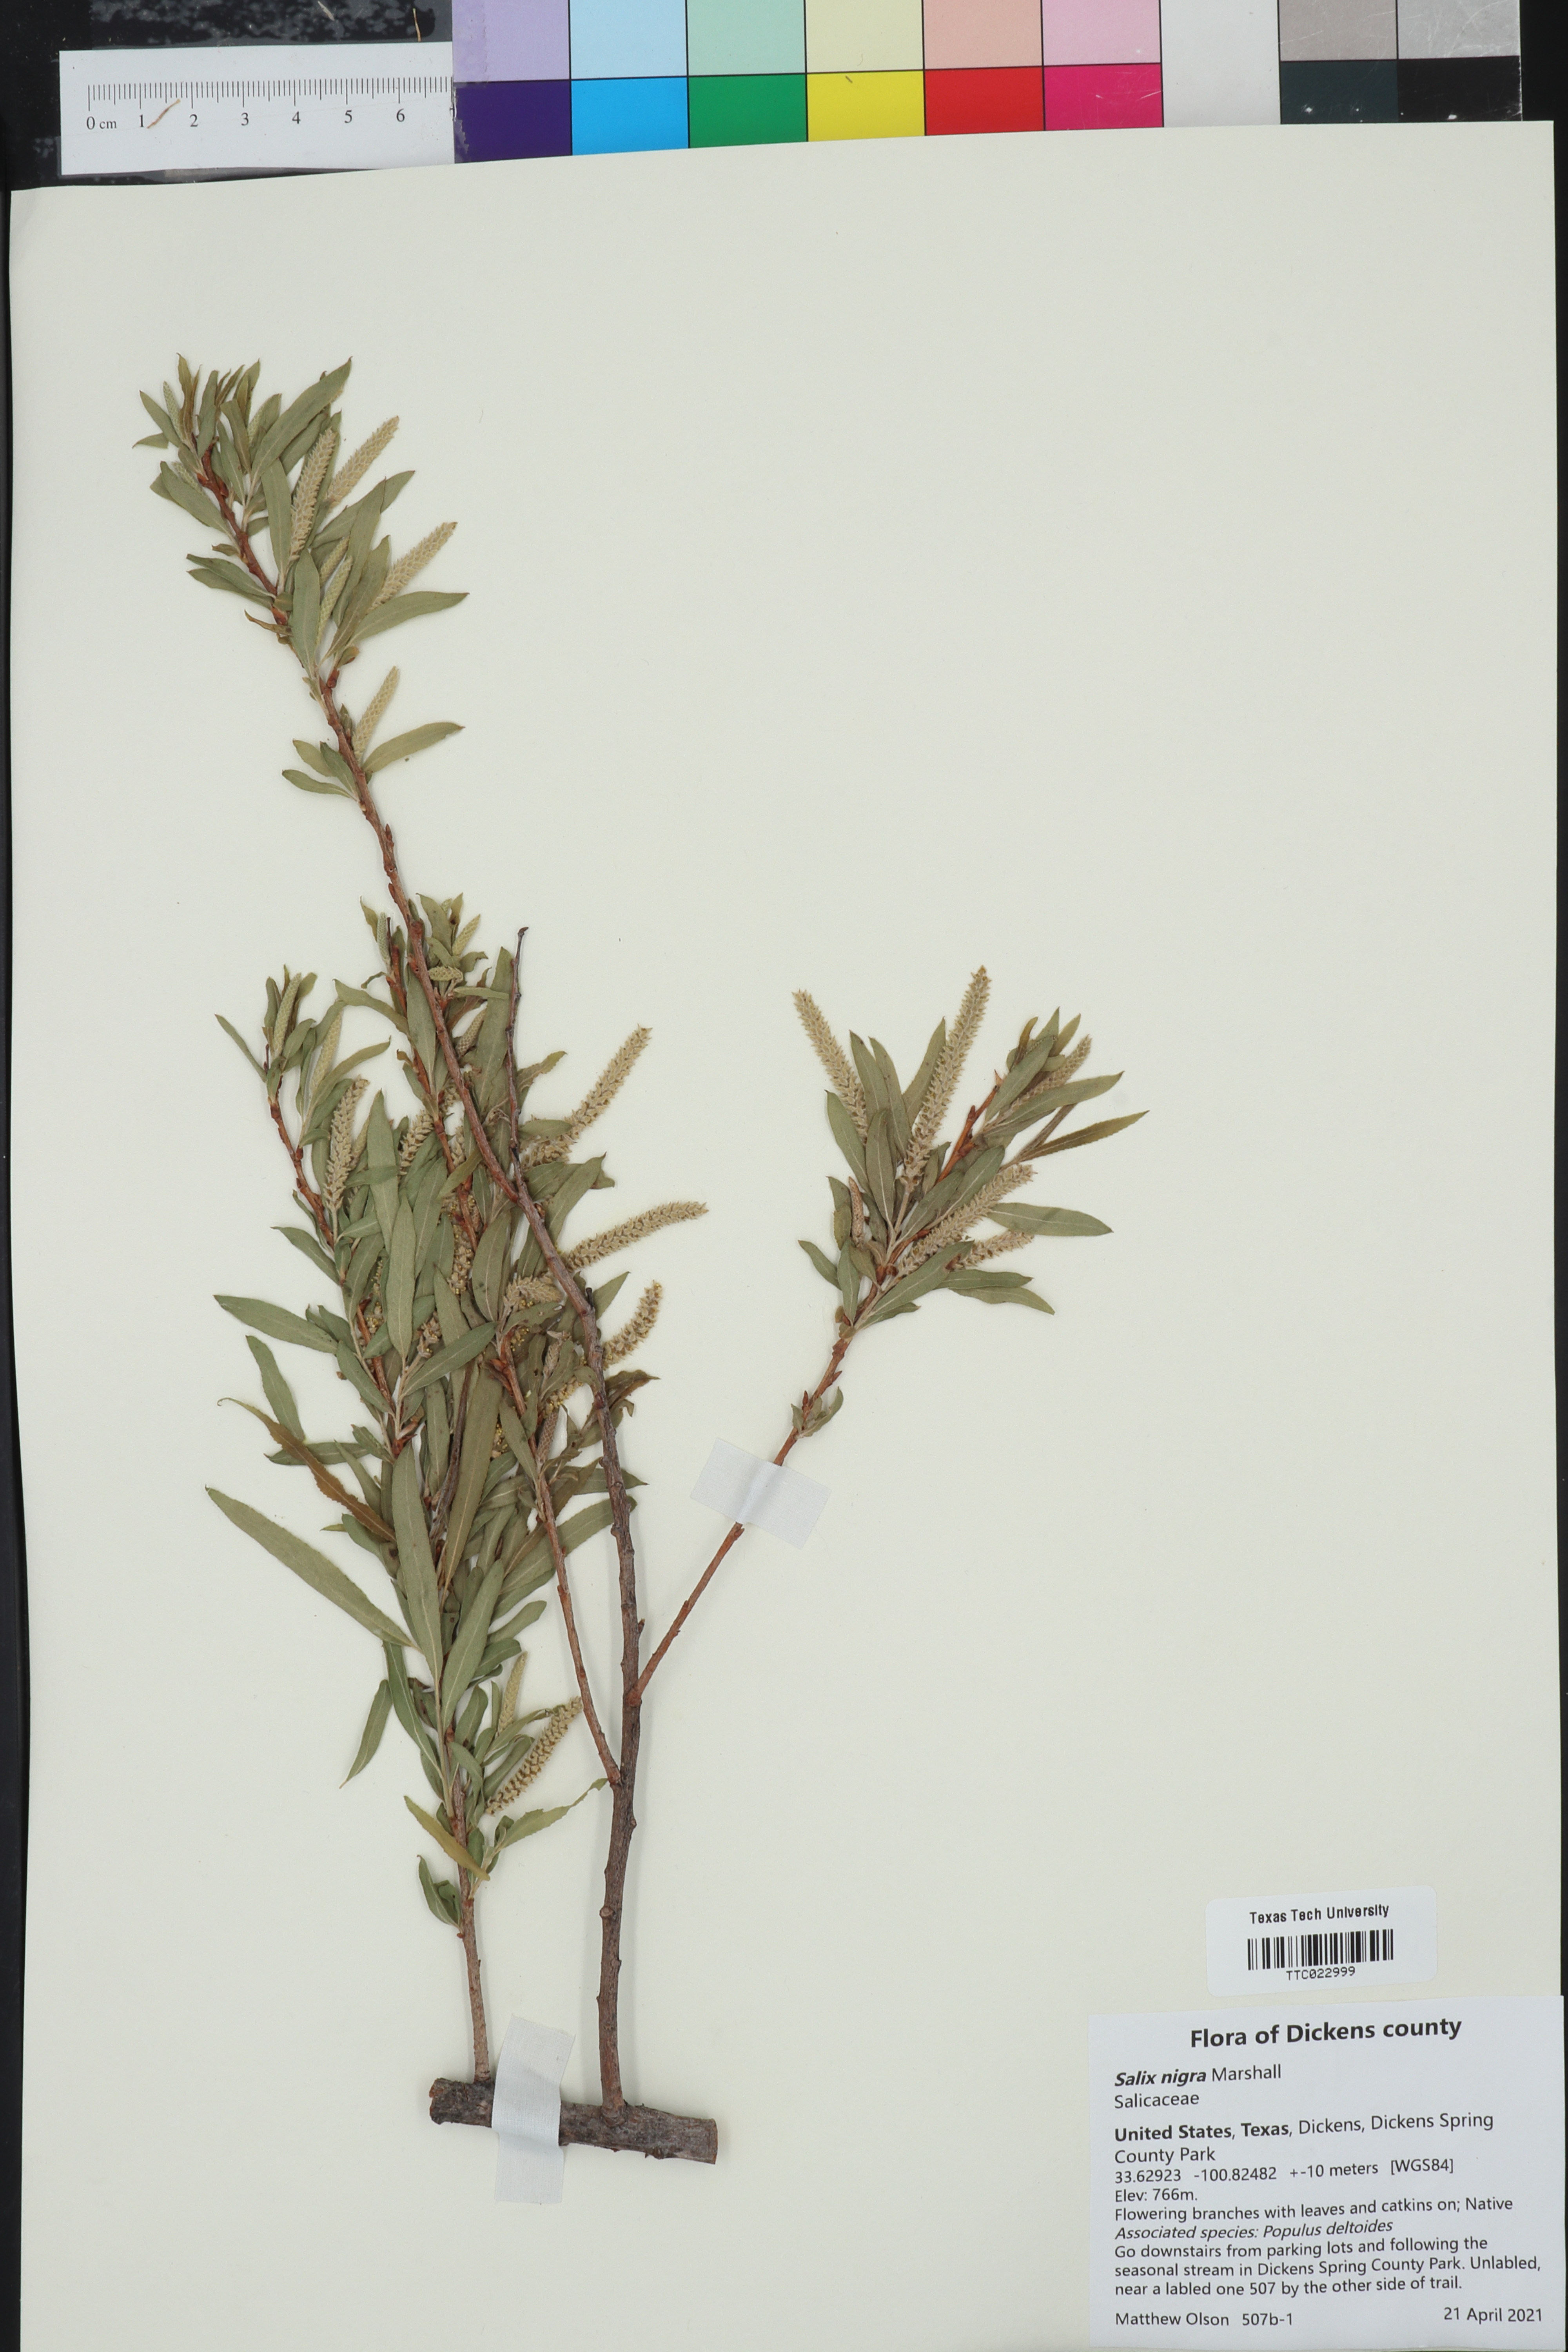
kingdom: Plantae
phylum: Tracheophyta
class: Magnoliopsida
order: Malpighiales
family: Salicaceae
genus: Salix
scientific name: Salix nigra
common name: Black willow
